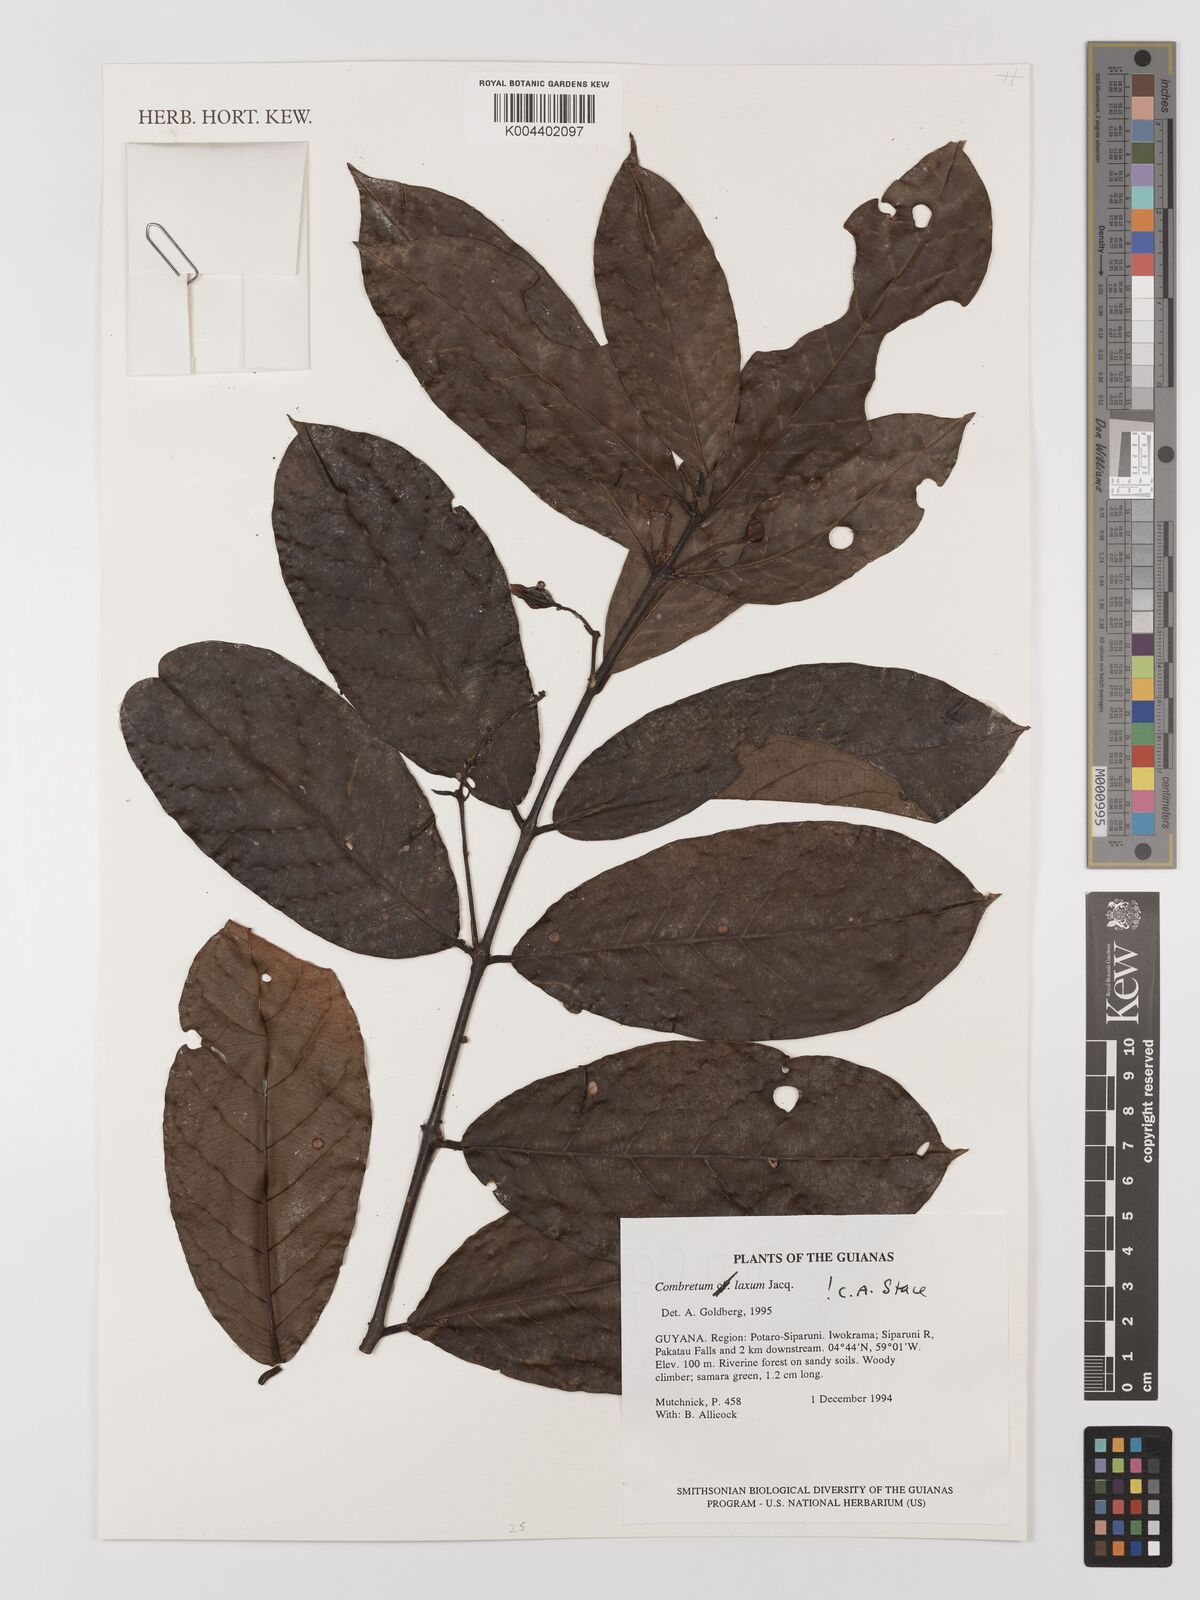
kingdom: Plantae
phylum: Tracheophyta
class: Magnoliopsida
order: Myrtales
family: Combretaceae
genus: Combretum
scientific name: Combretum
